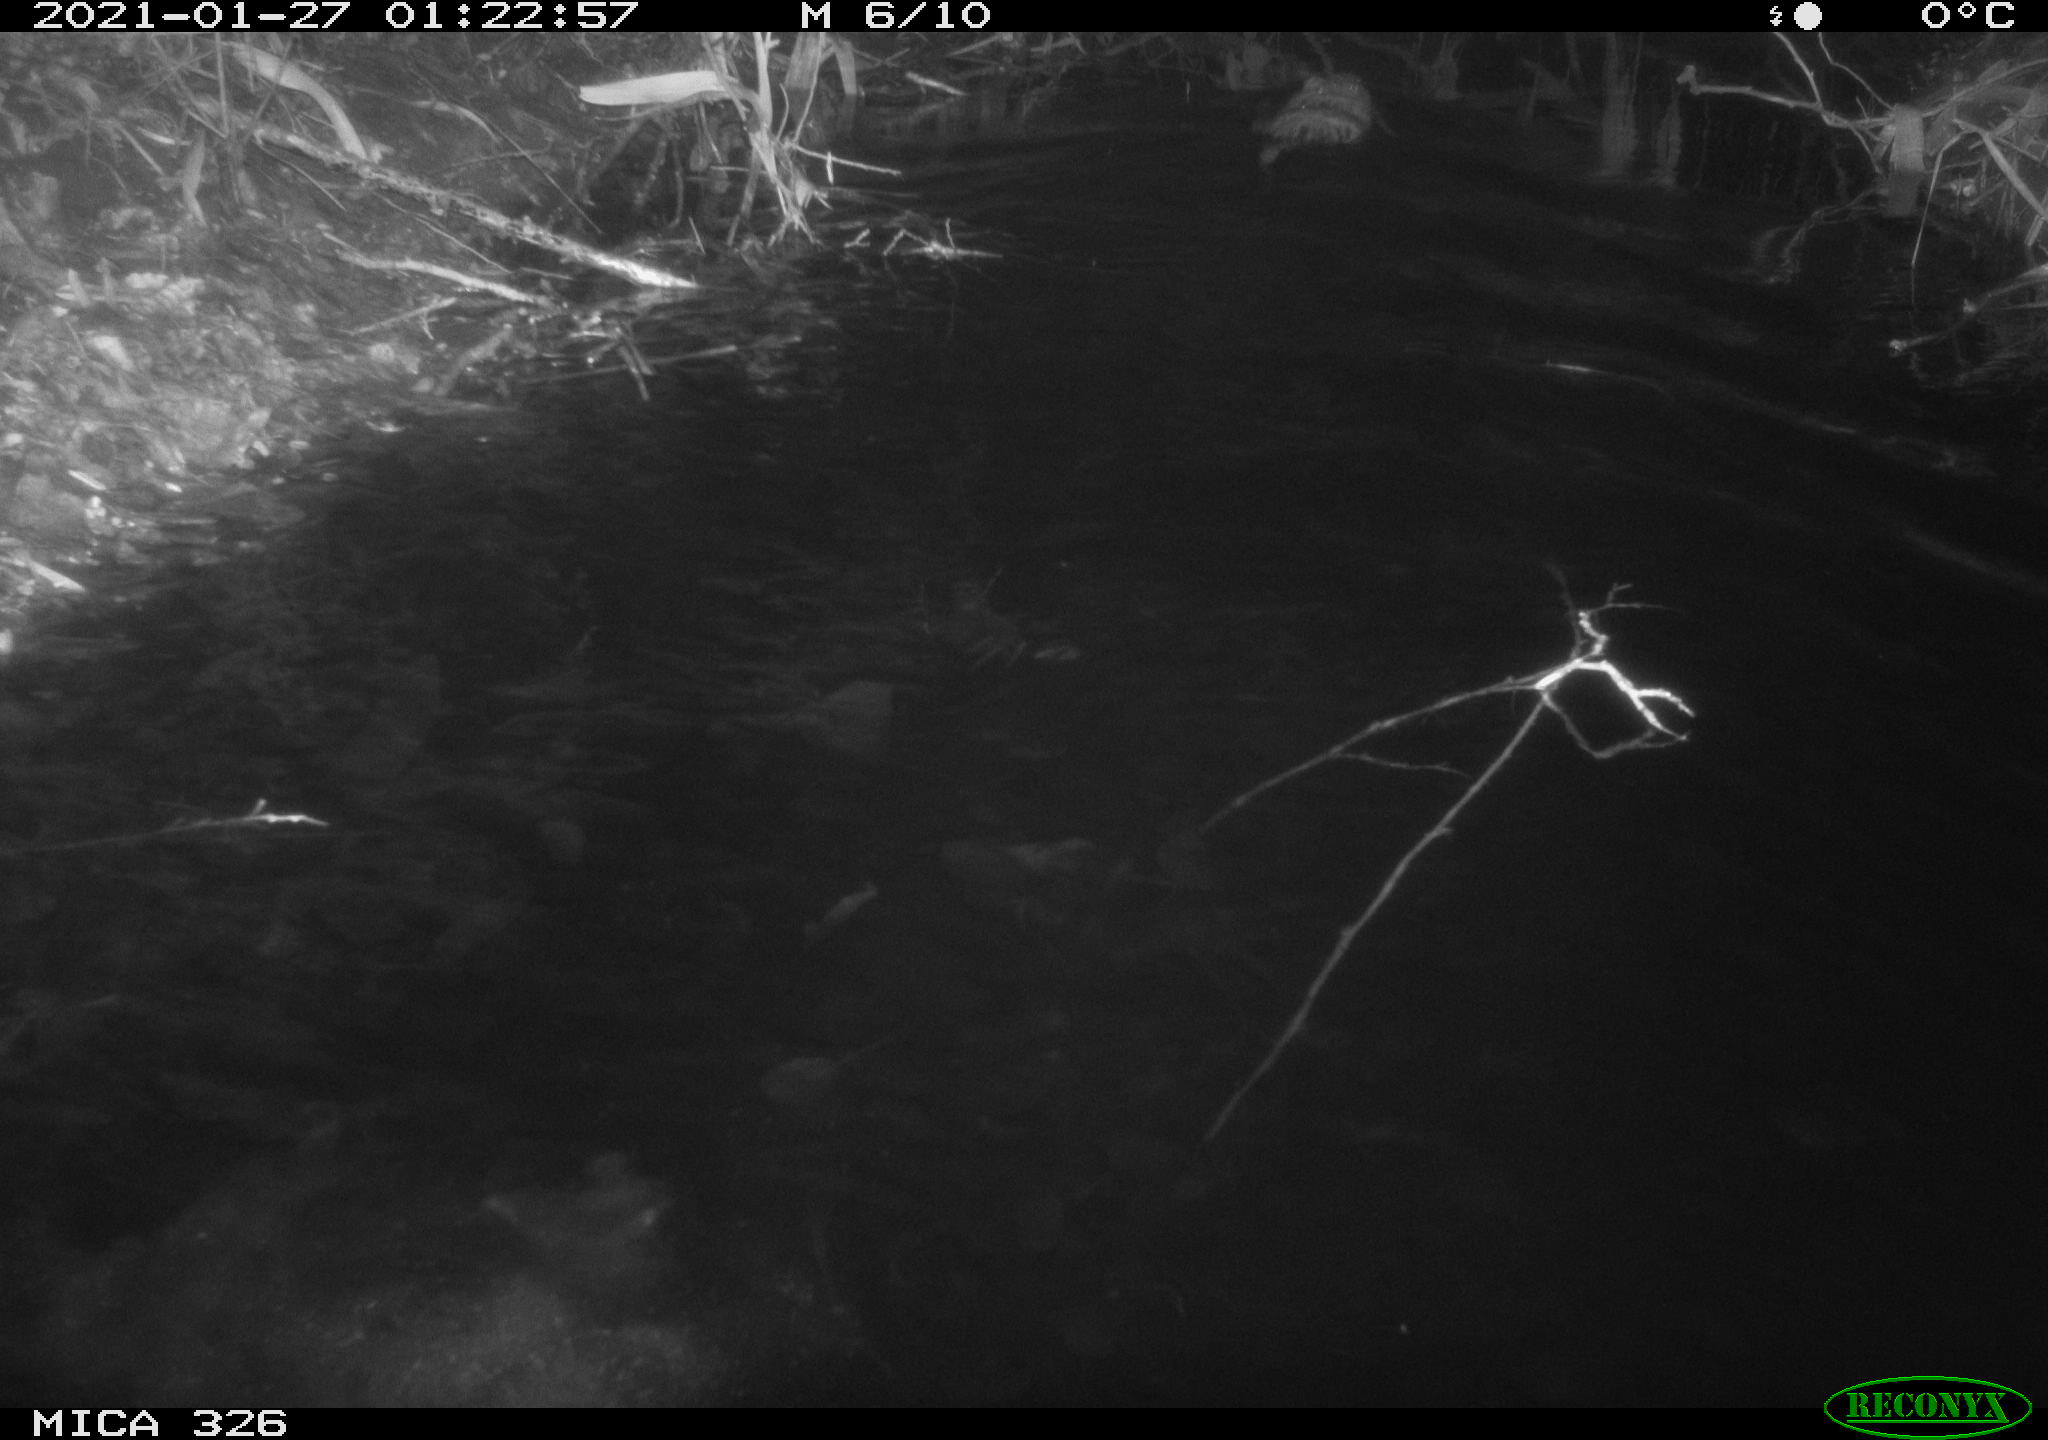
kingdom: Animalia
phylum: Chordata
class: Mammalia
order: Rodentia
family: Cricetidae
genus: Ondatra
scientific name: Ondatra zibethicus
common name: Muskrat
